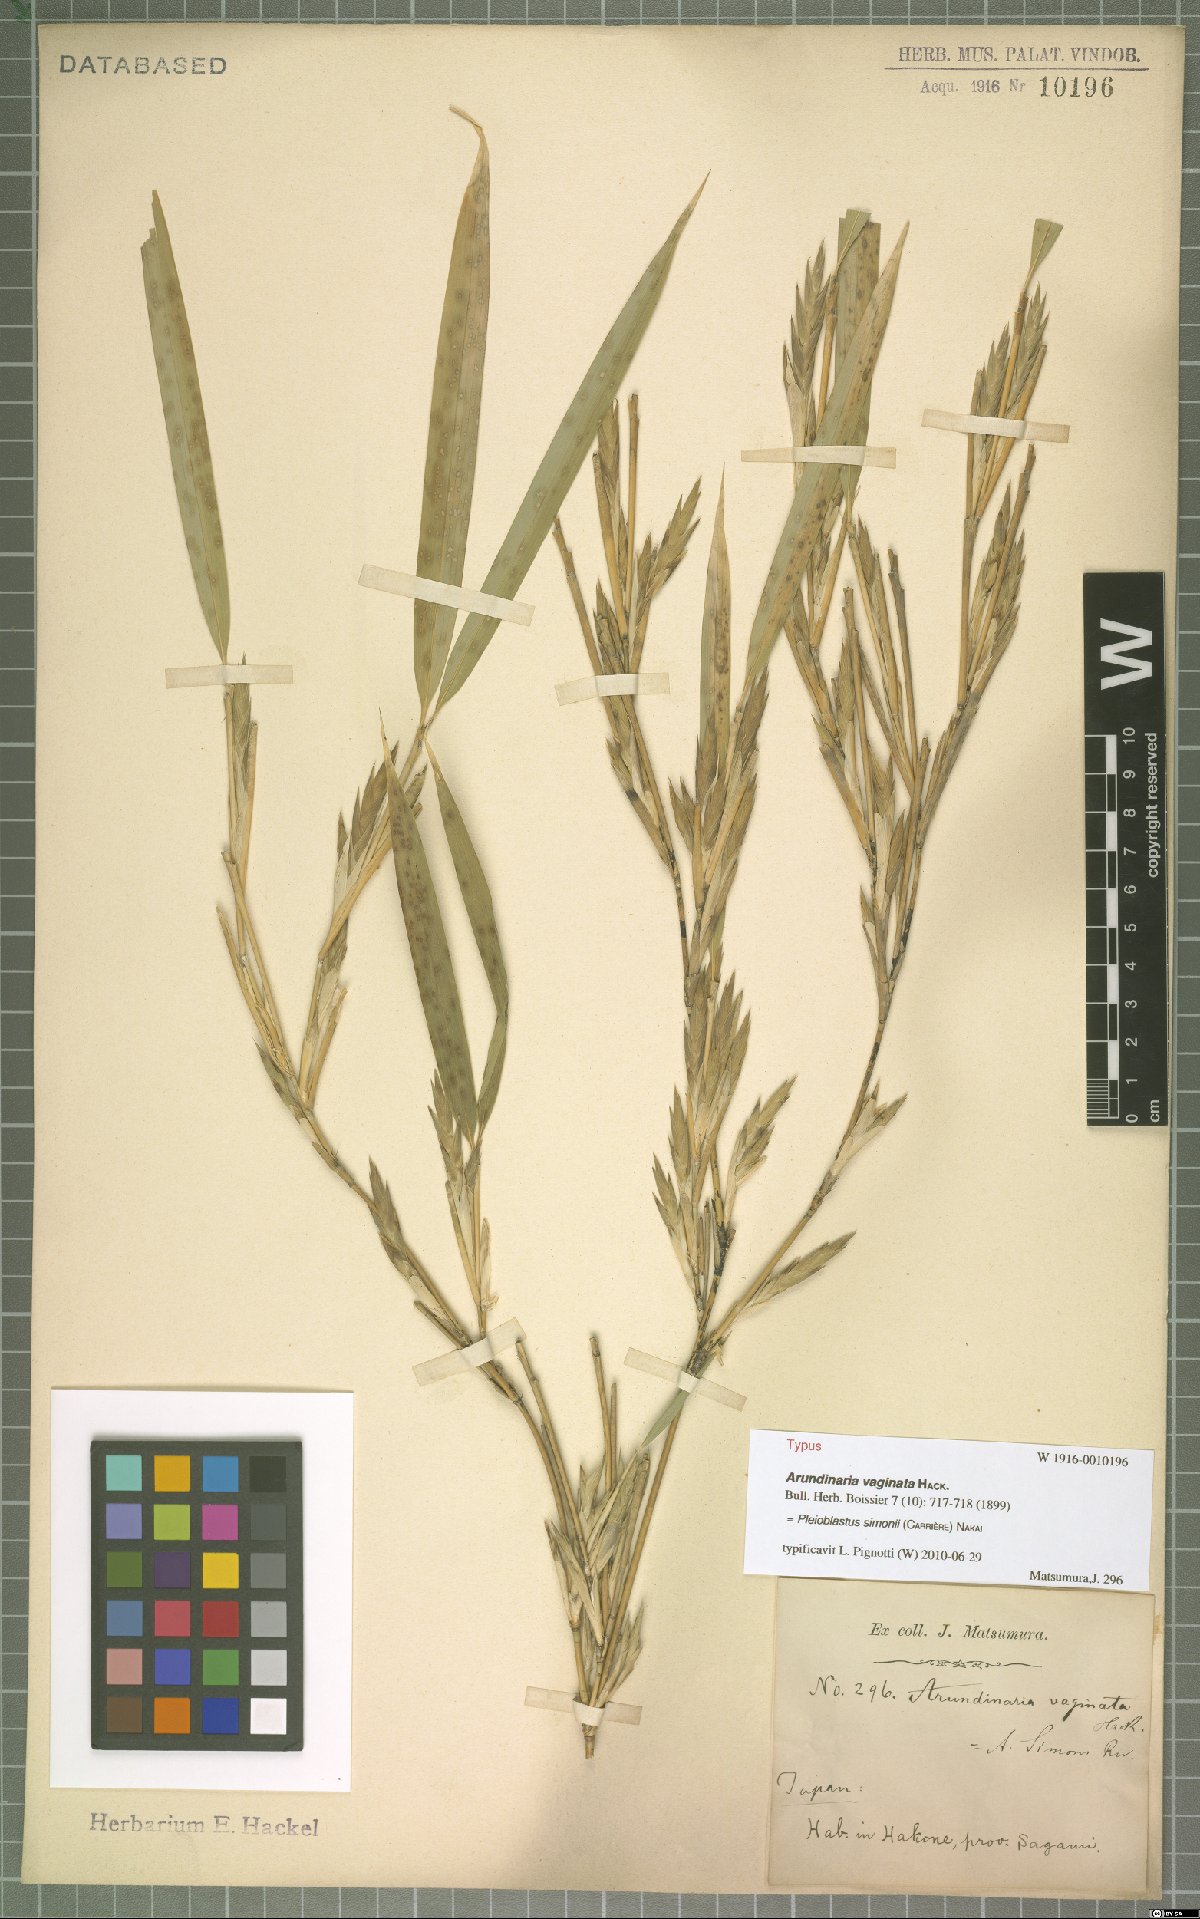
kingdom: Plantae
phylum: Tracheophyta
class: Liliopsida
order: Poales
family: Poaceae
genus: Pleioblastus
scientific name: Pleioblastus simonii
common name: Simon bamboo
